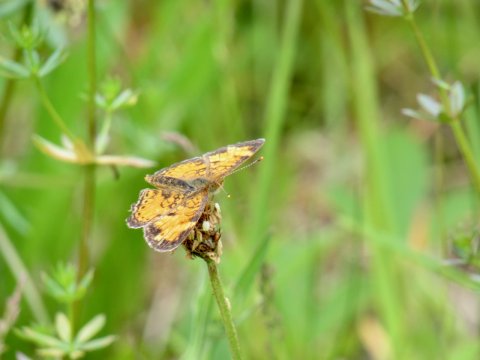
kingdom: Animalia
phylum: Arthropoda
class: Insecta
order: Lepidoptera
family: Nymphalidae
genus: Phyciodes
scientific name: Phyciodes tharos
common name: Pearl Crescent
